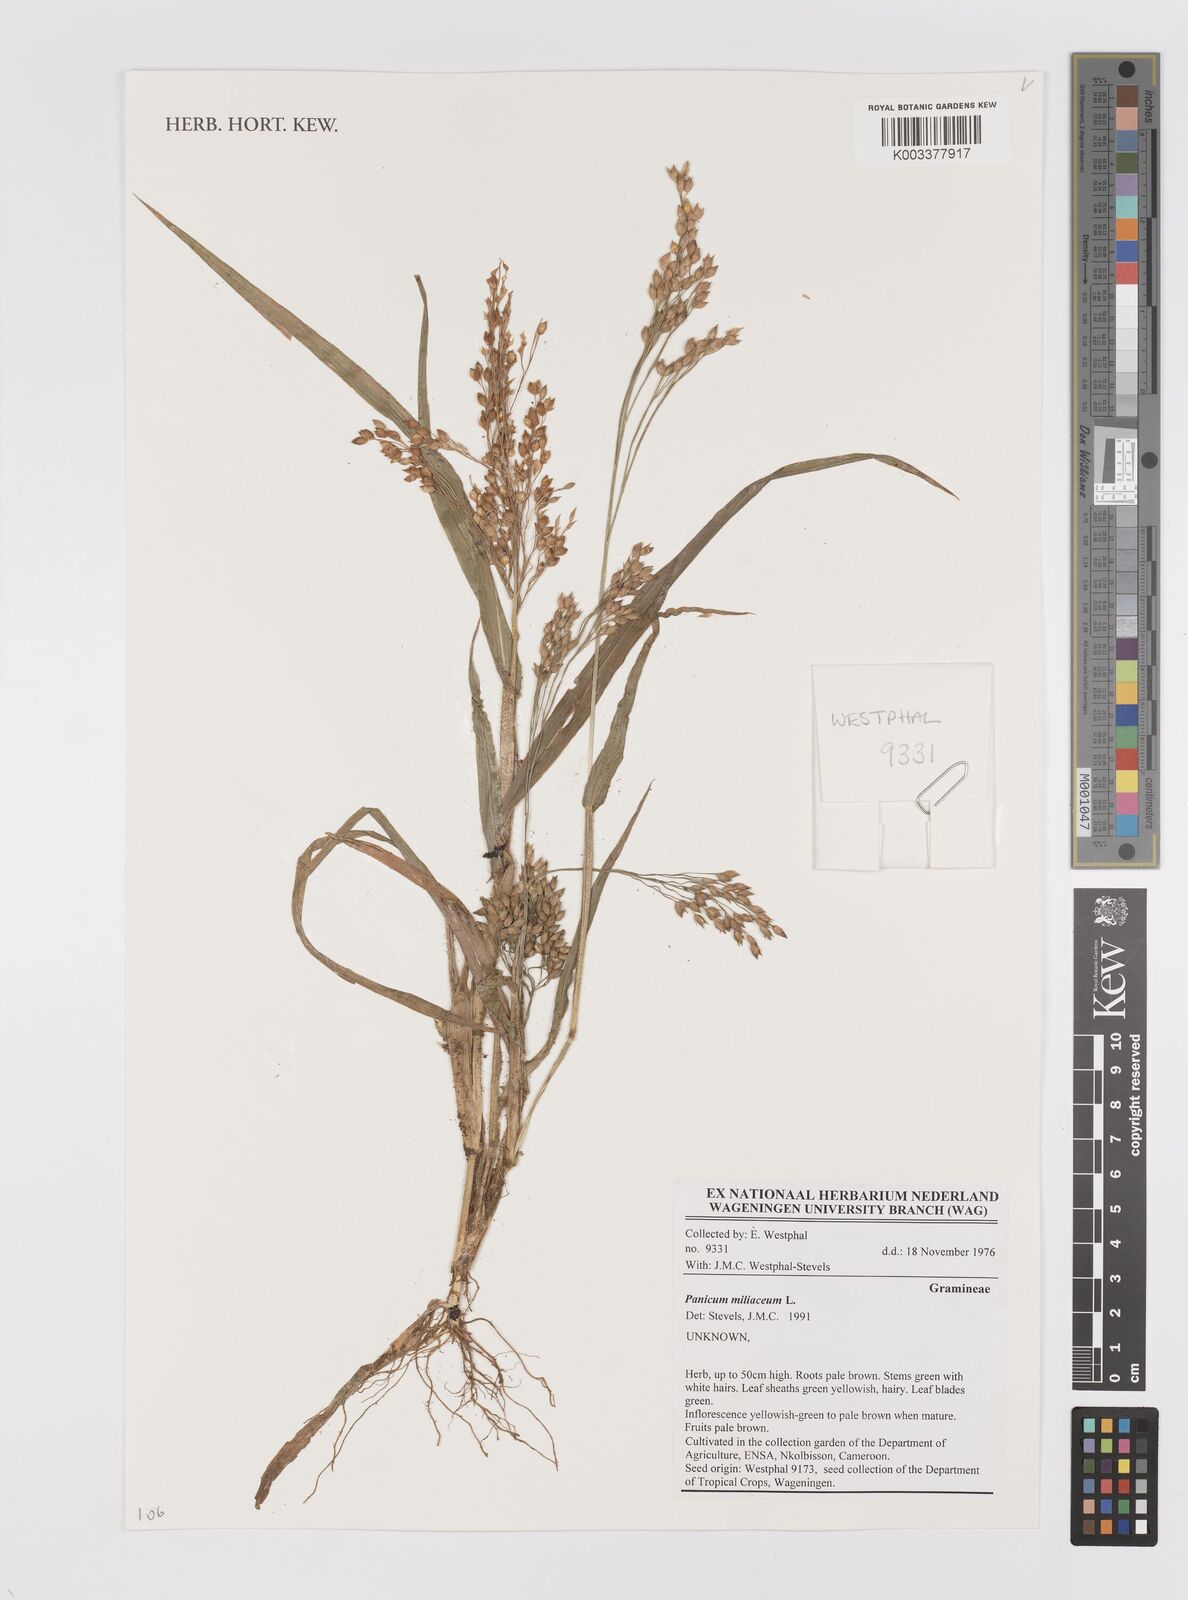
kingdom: Plantae
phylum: Tracheophyta
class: Liliopsida
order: Poales
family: Poaceae
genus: Panicum
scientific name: Panicum miliaceum
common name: Common millet
